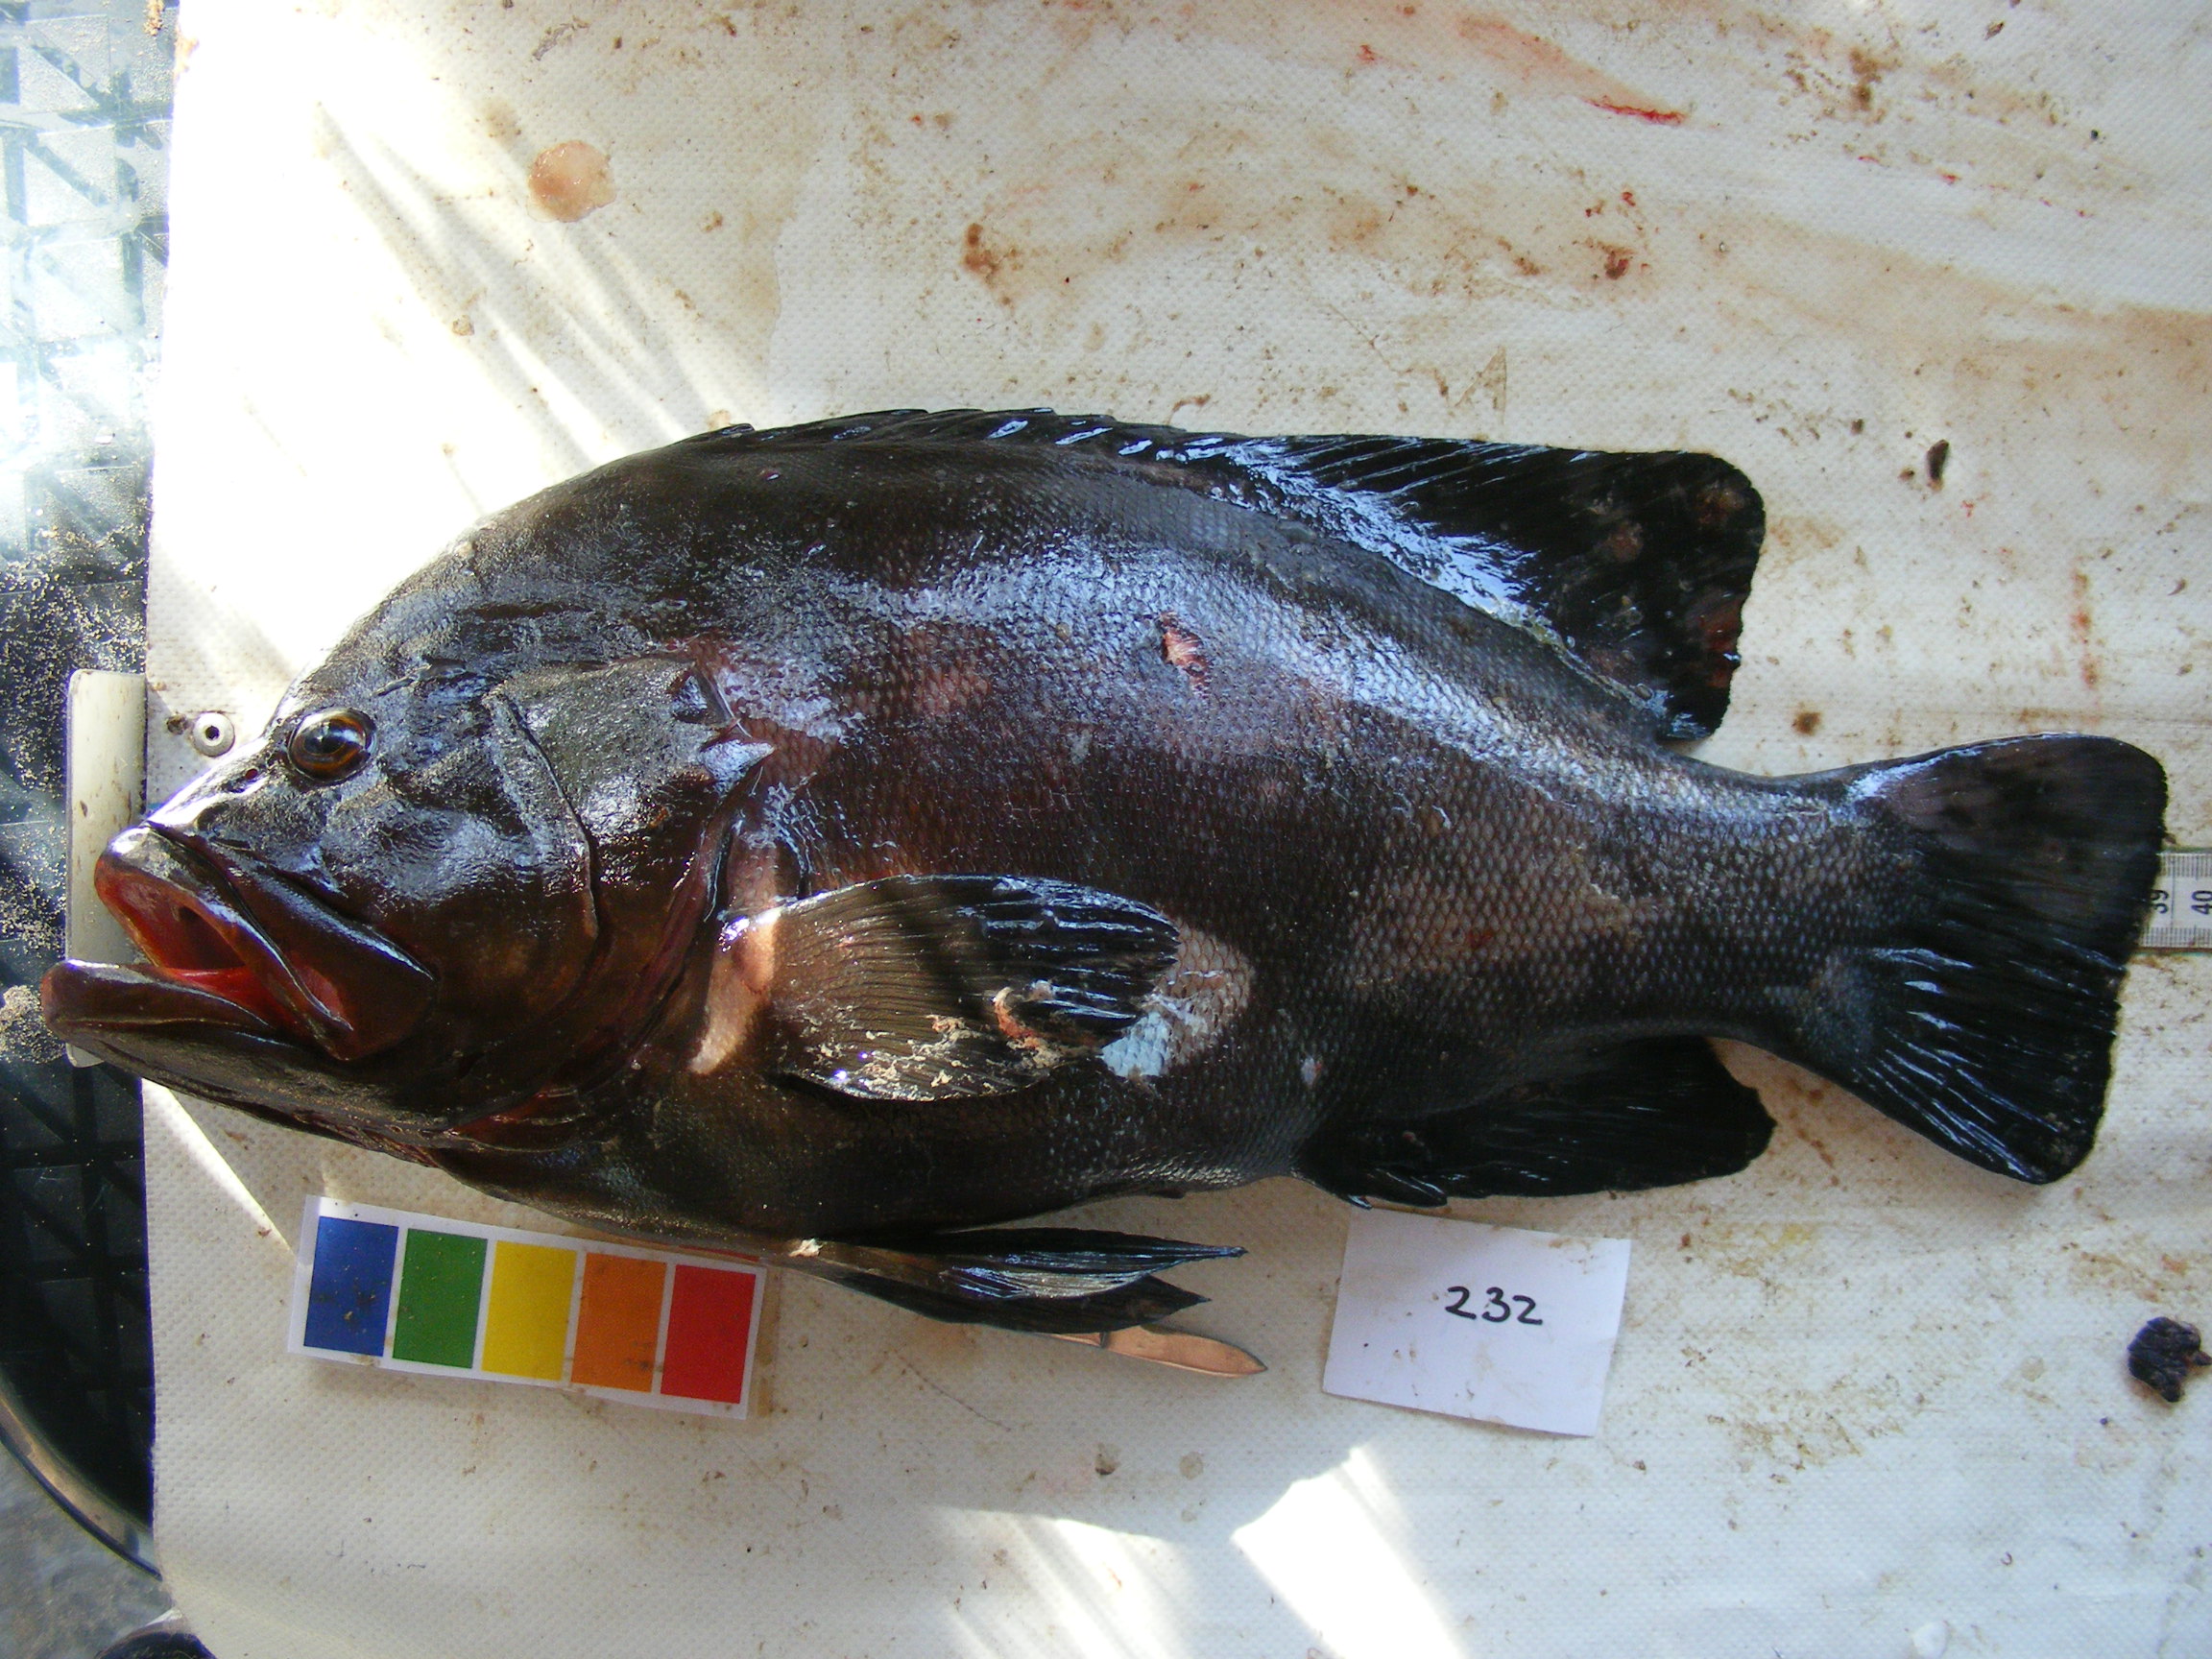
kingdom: Animalia
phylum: Chordata
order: Perciformes
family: Serranidae
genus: Aethaloperca
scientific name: Aethaloperca rogaa
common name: Redmouth grouper
